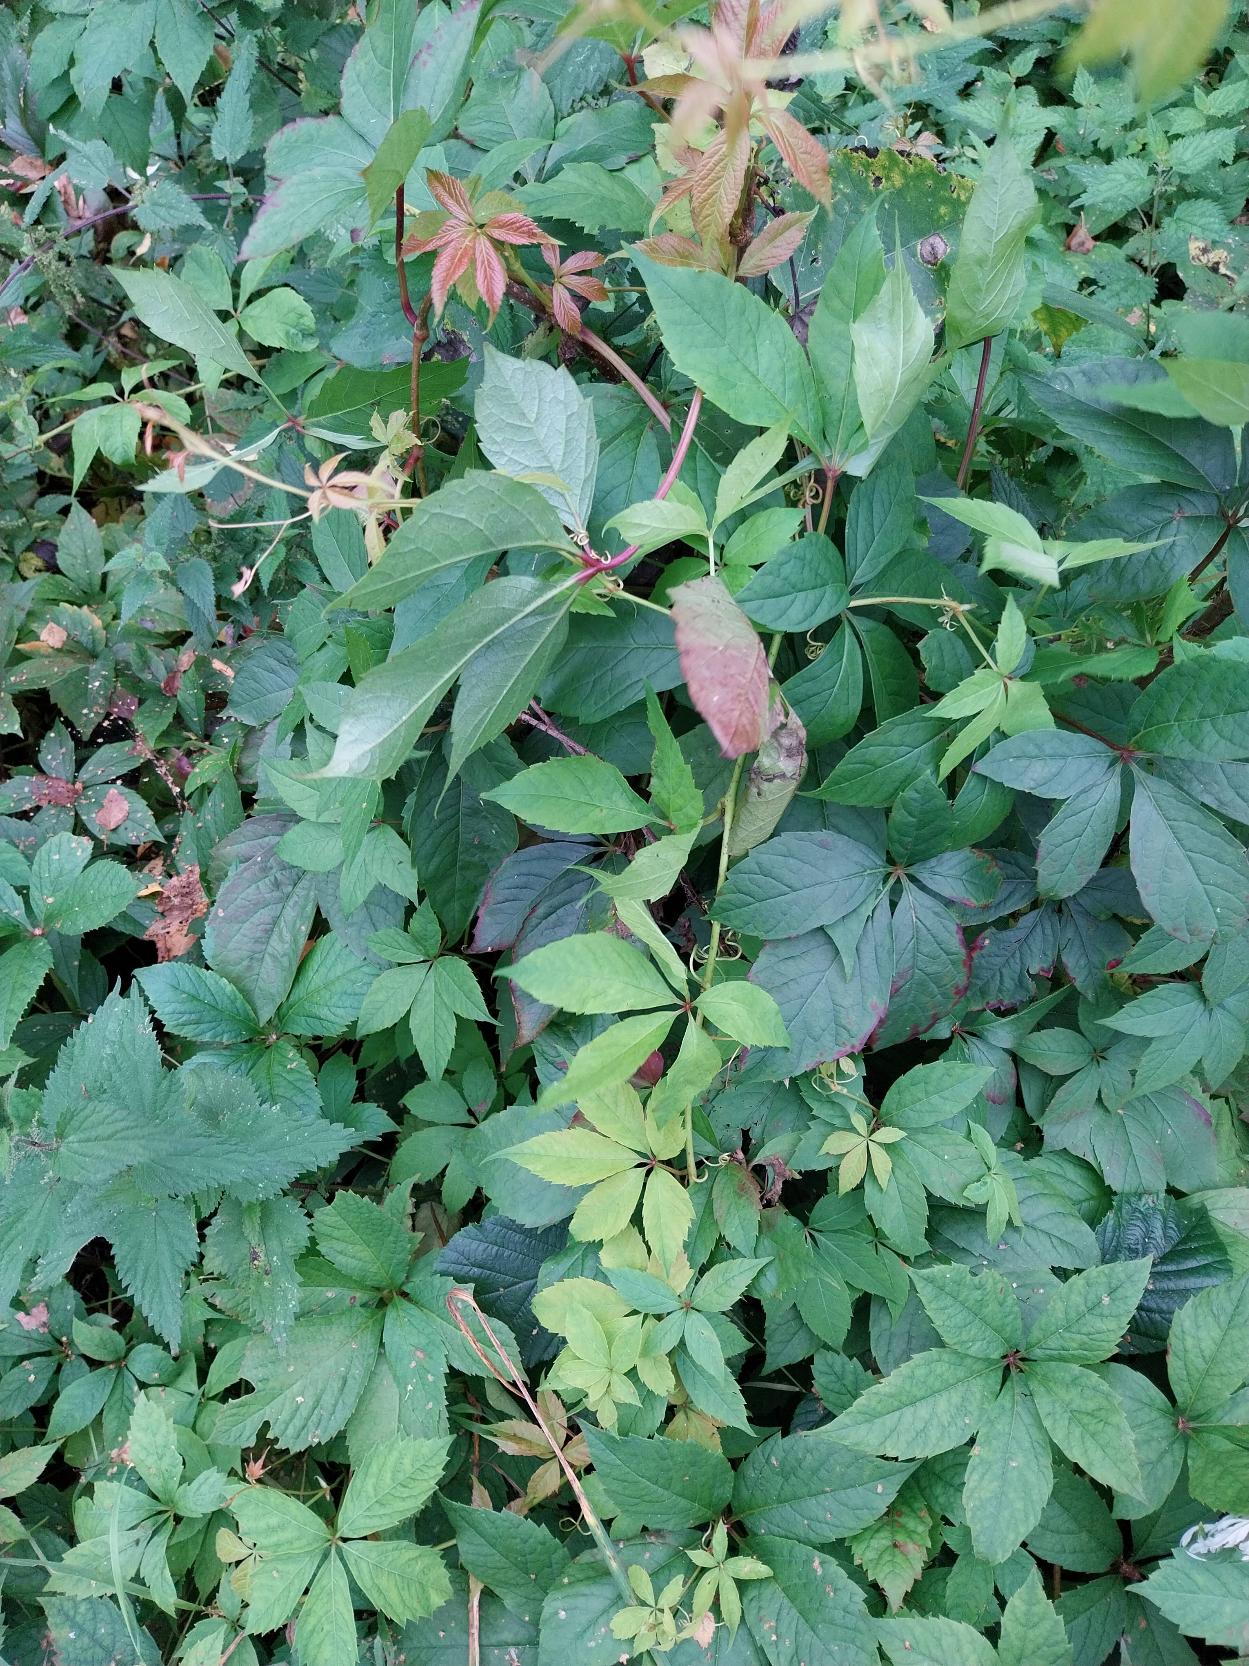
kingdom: Plantae
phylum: Tracheophyta
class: Magnoliopsida
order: Vitales
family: Vitaceae
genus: Parthenocissus
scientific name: Parthenocissus inserta
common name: Vildvin
